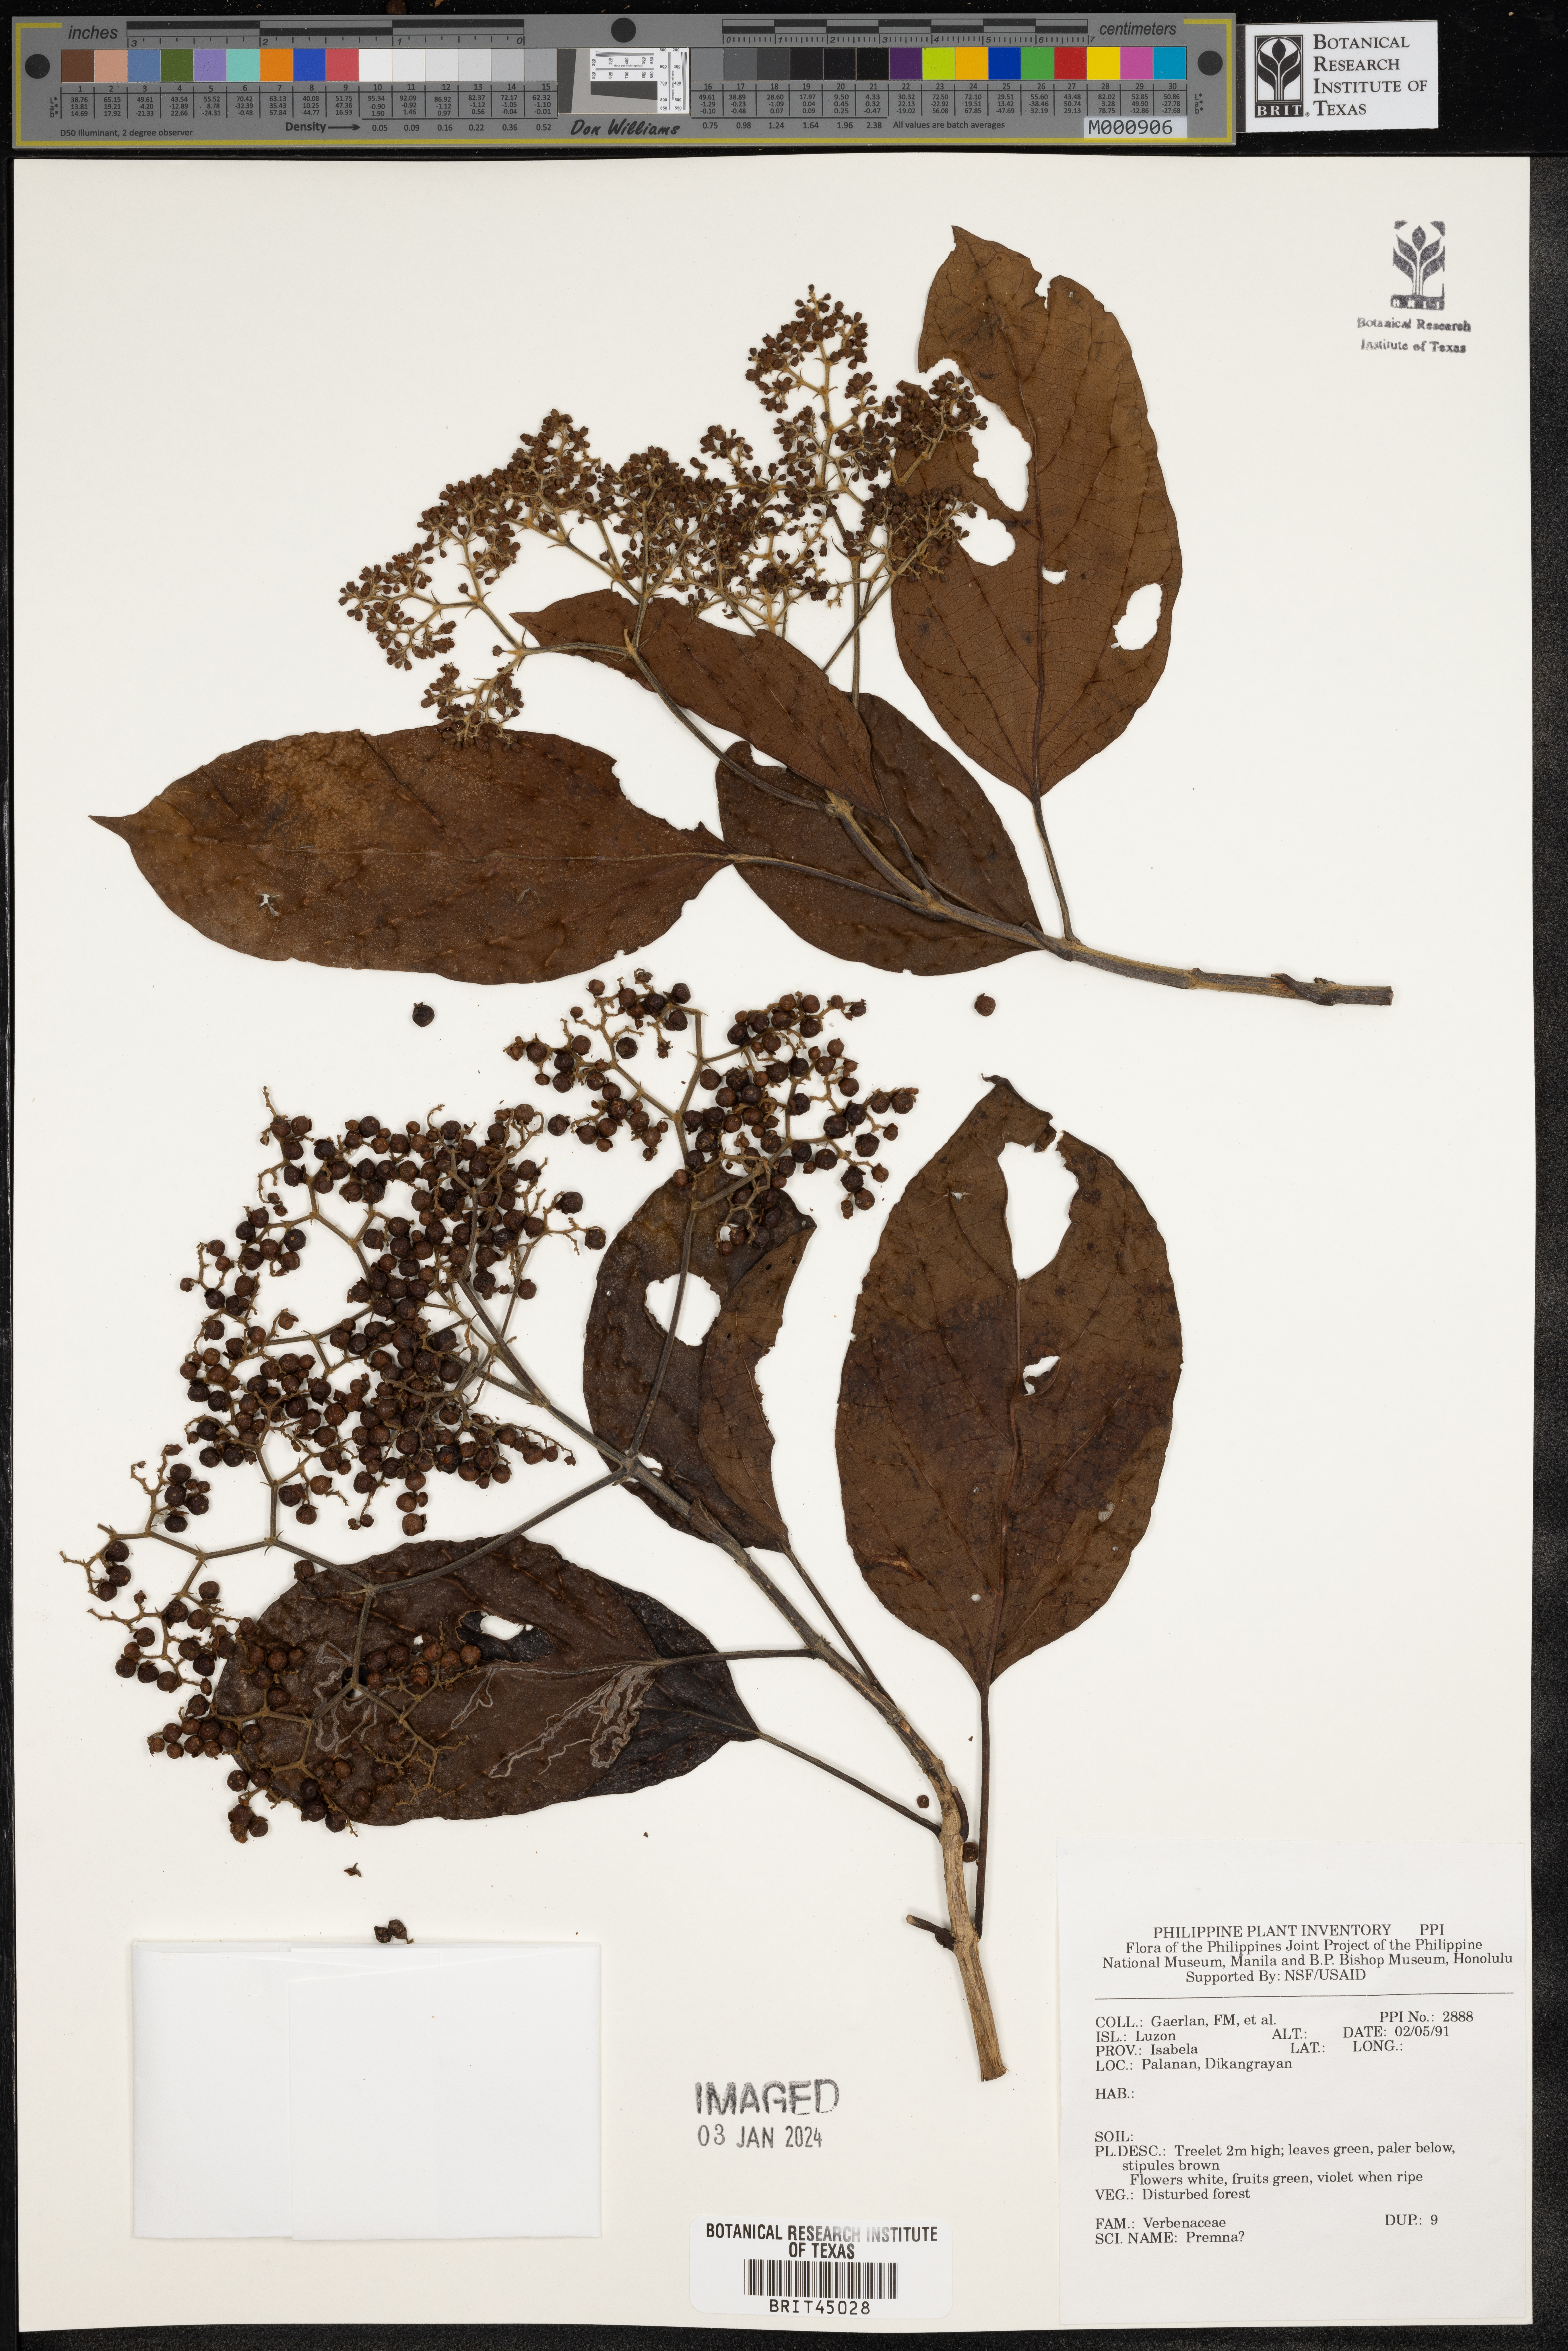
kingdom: Plantae
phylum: Tracheophyta
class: Magnoliopsida
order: Lamiales
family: Lamiaceae
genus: Premna
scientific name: Premna
